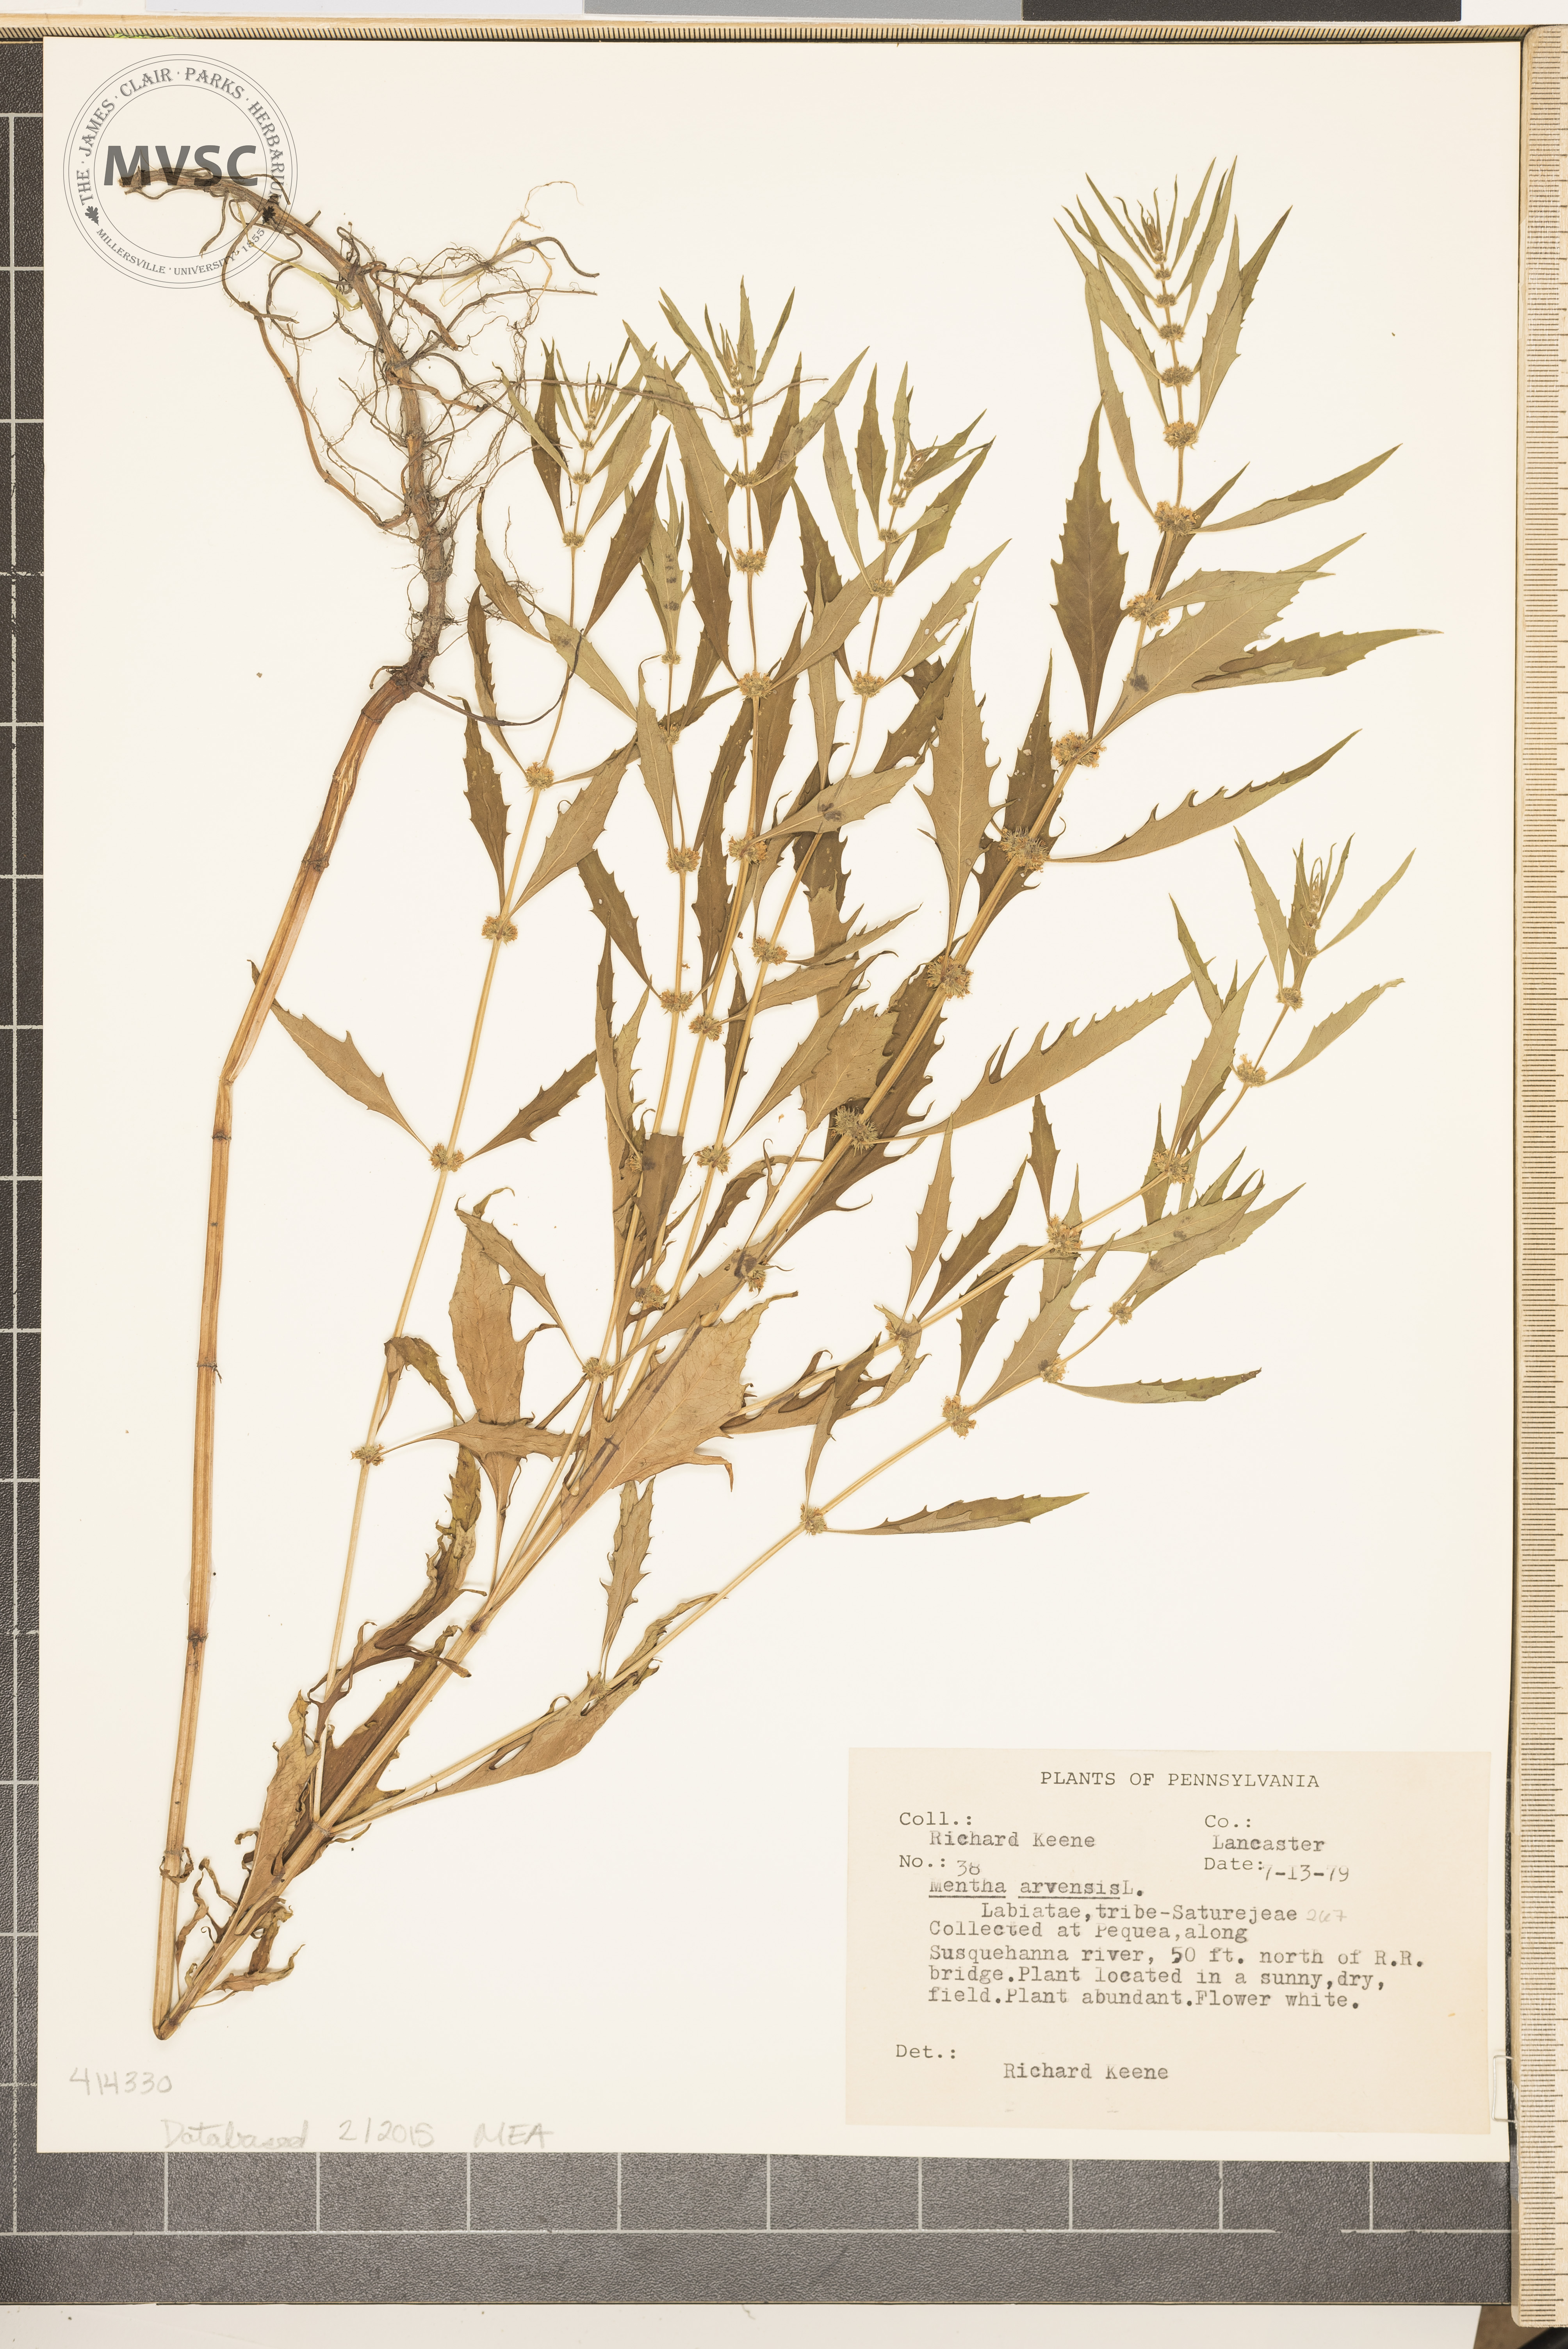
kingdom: Plantae
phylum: Tracheophyta
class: Magnoliopsida
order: Lamiales
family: Lamiaceae
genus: Mentha
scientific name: Mentha arvensis
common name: Wild mint
